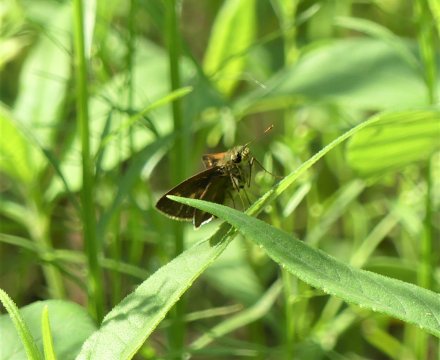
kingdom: Animalia
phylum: Arthropoda
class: Insecta
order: Lepidoptera
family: Hesperiidae
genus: Polites
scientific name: Polites
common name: Crossline Skipper
